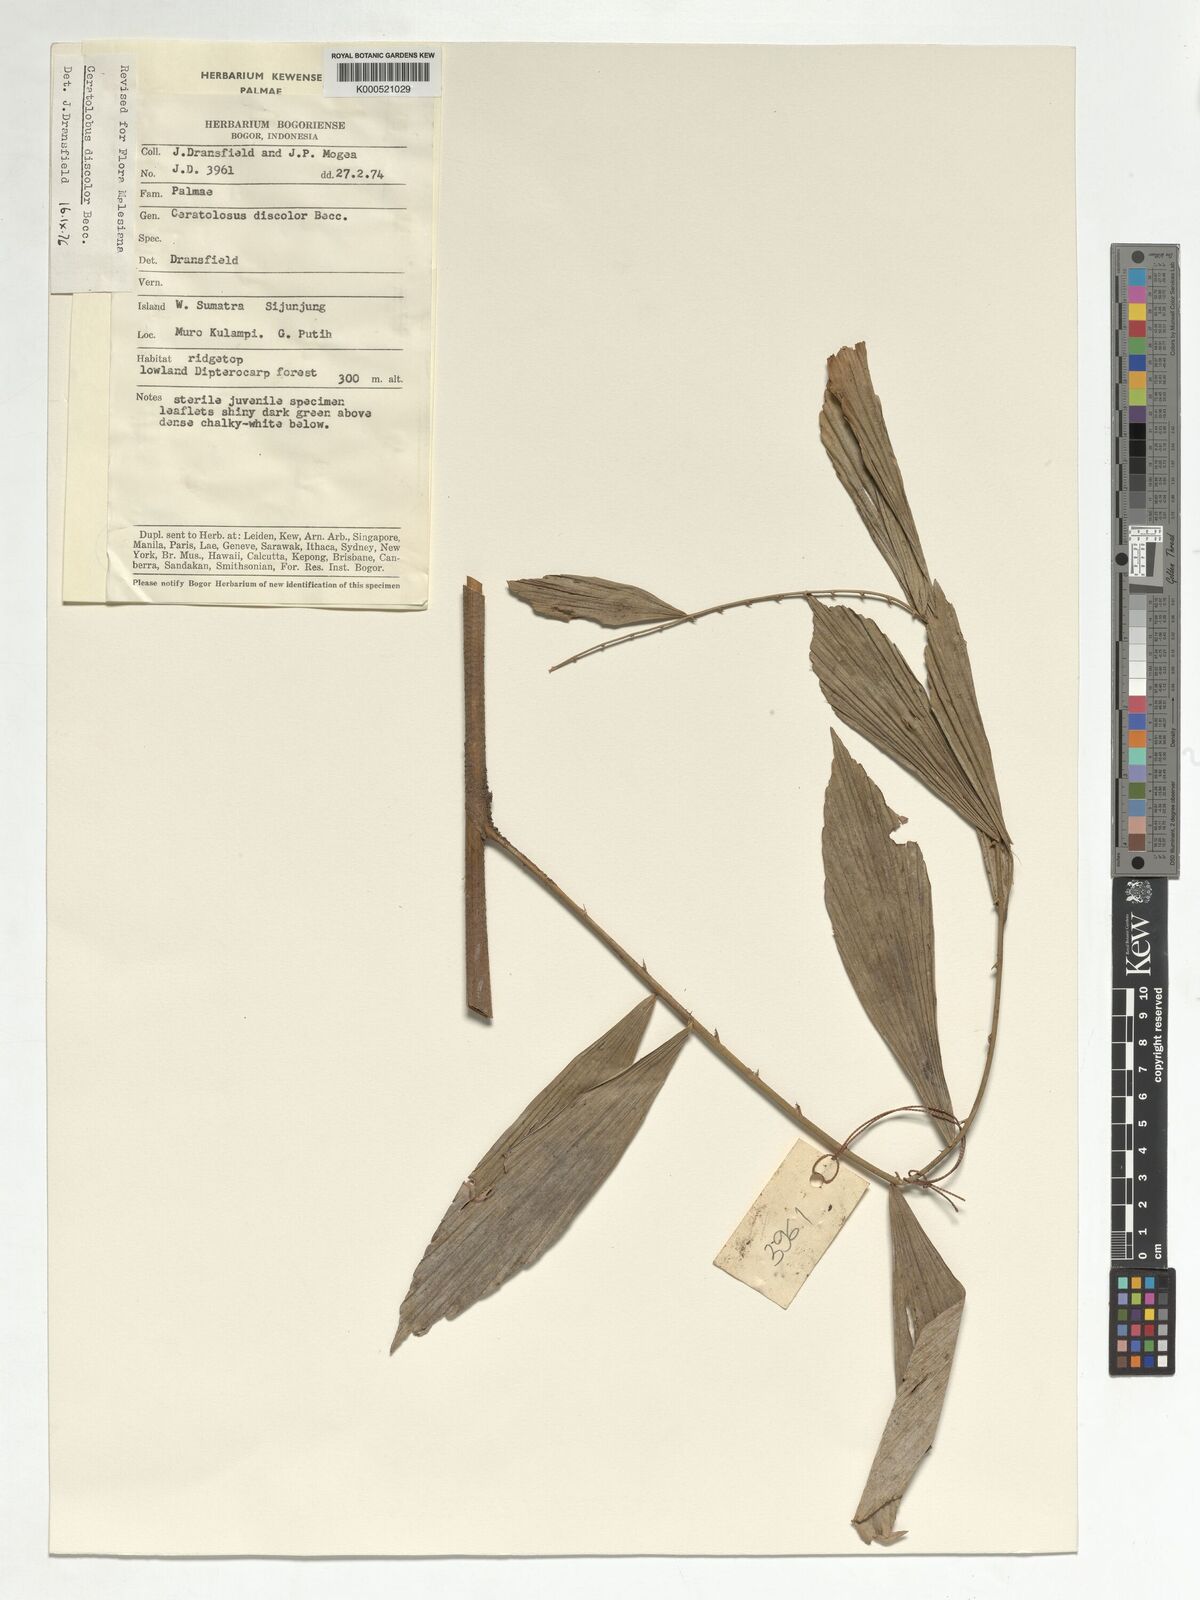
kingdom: Plantae
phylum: Tracheophyta
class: Liliopsida
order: Arecales
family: Arecaceae
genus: Calamus
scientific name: Calamus hallierianus
